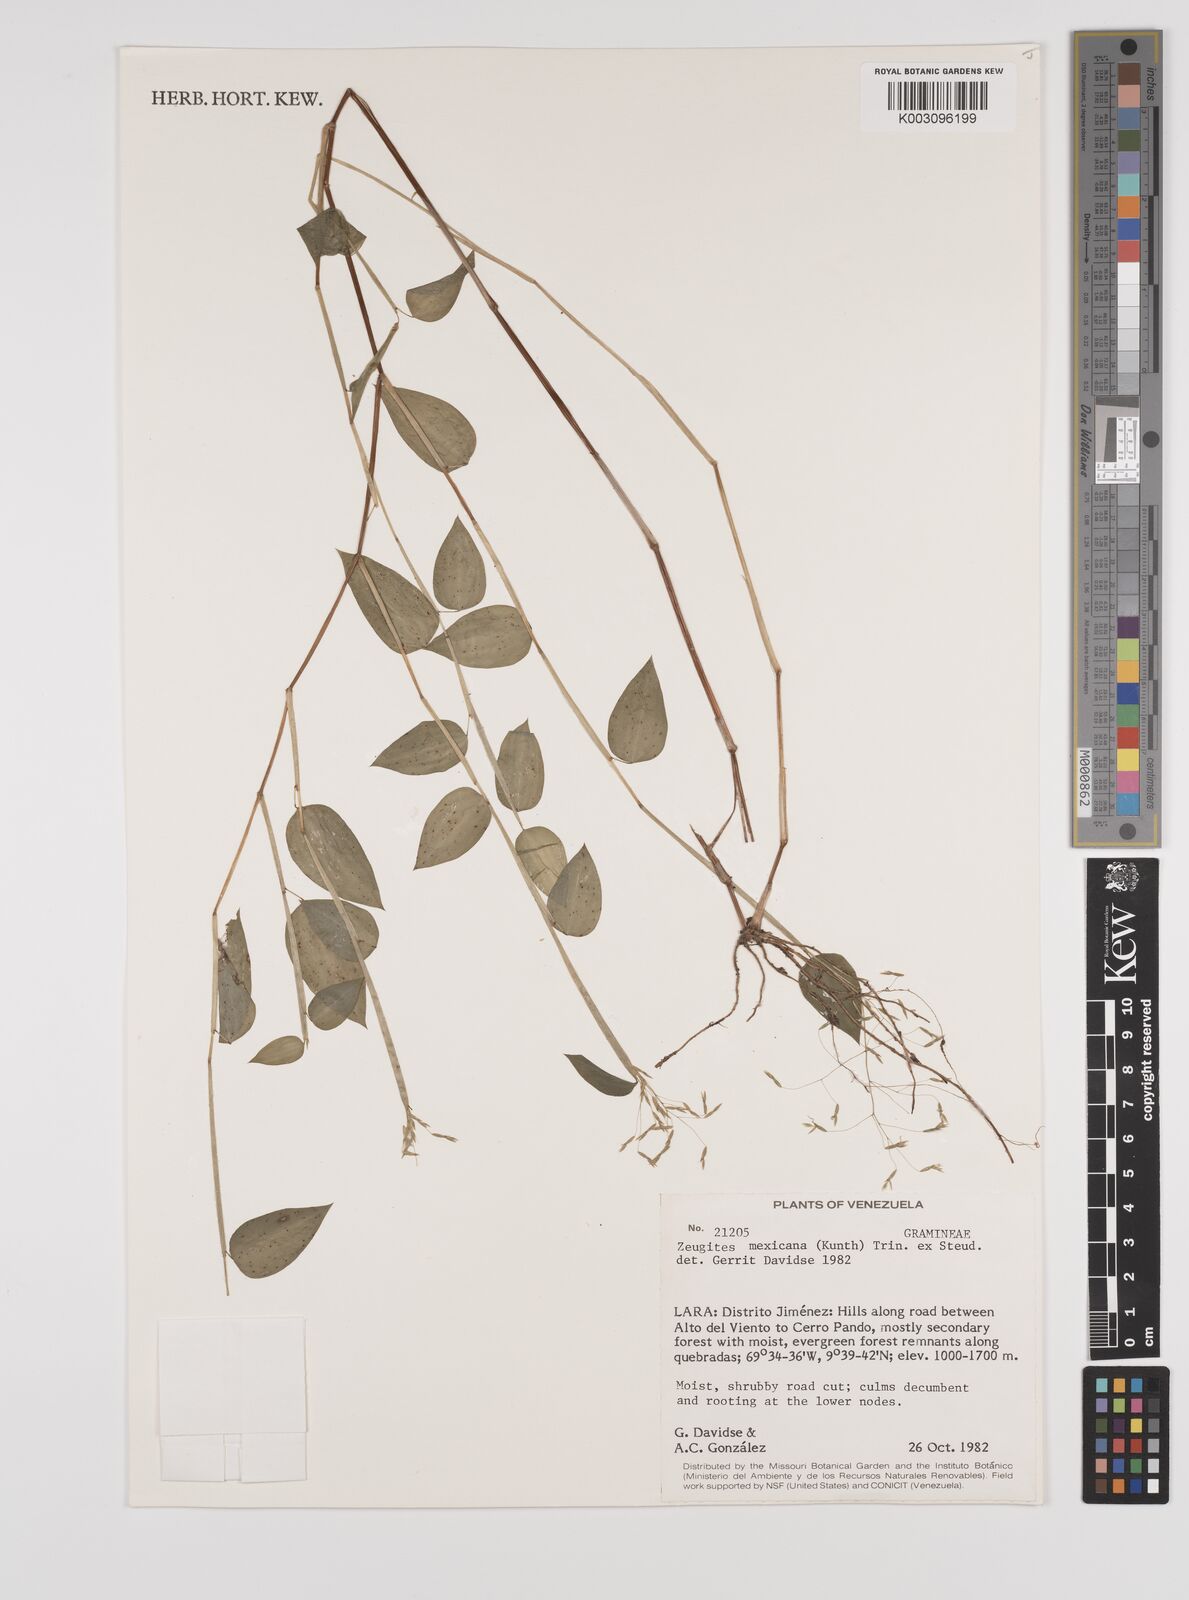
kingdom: Plantae
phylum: Tracheophyta
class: Liliopsida
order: Poales
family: Poaceae
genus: Zeugites
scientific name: Zeugites americanus
